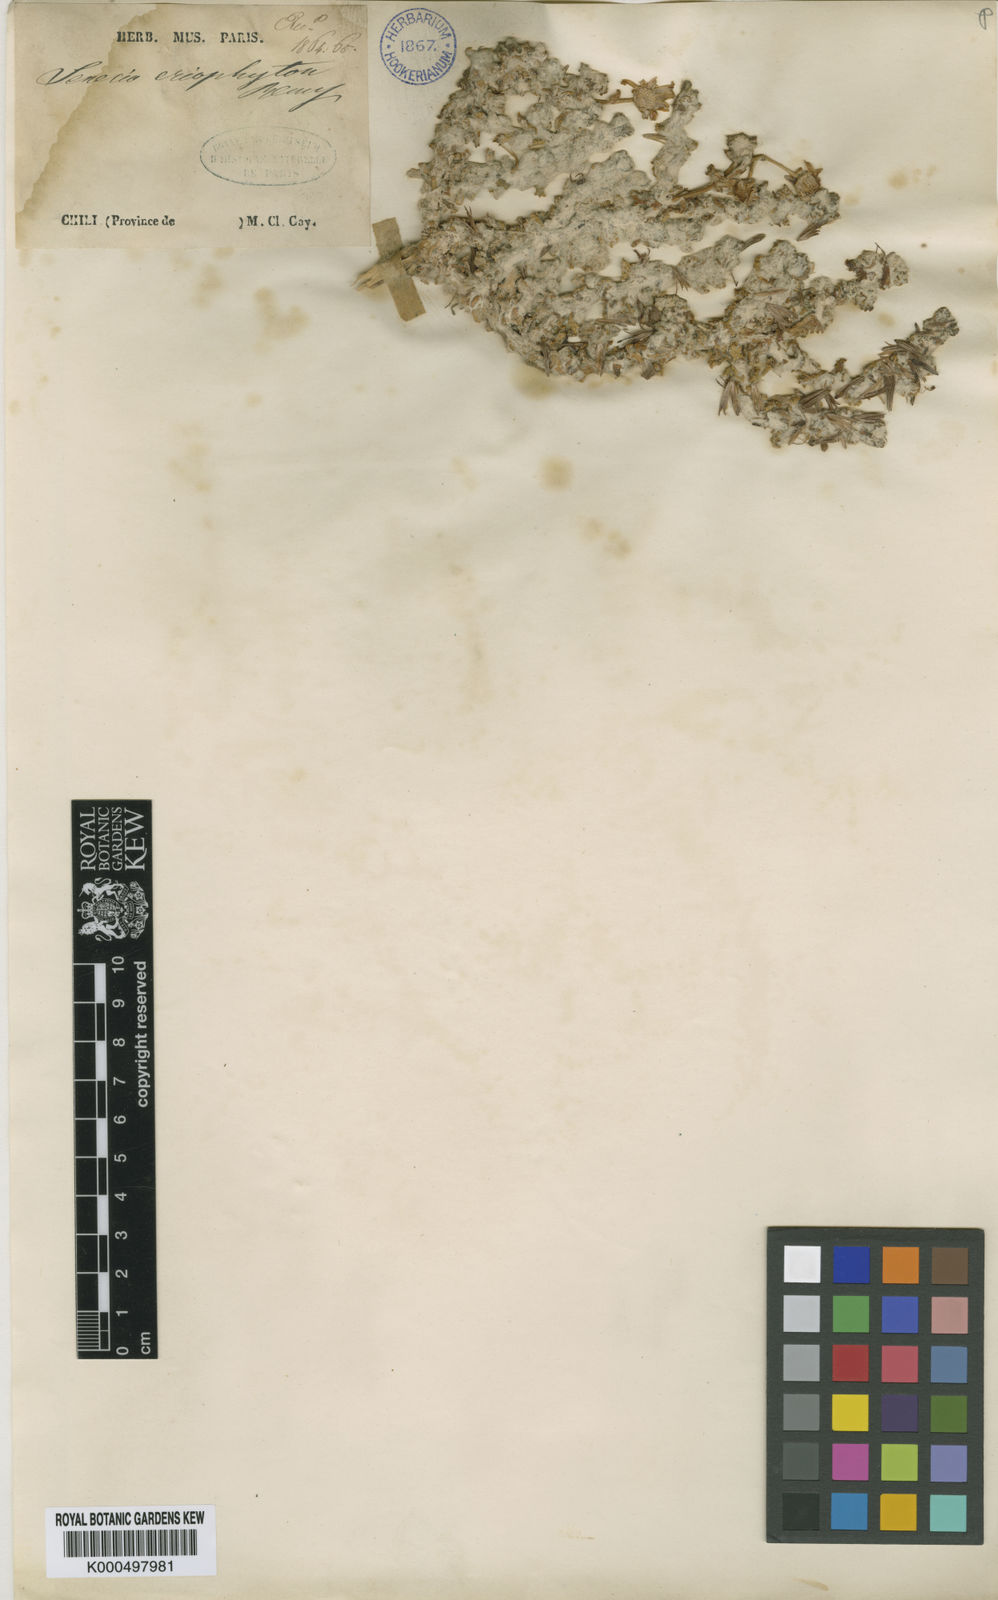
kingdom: Plantae
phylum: Tracheophyta
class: Magnoliopsida
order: Asterales
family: Asteraceae
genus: Senecio
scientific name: Senecio eriophyton
